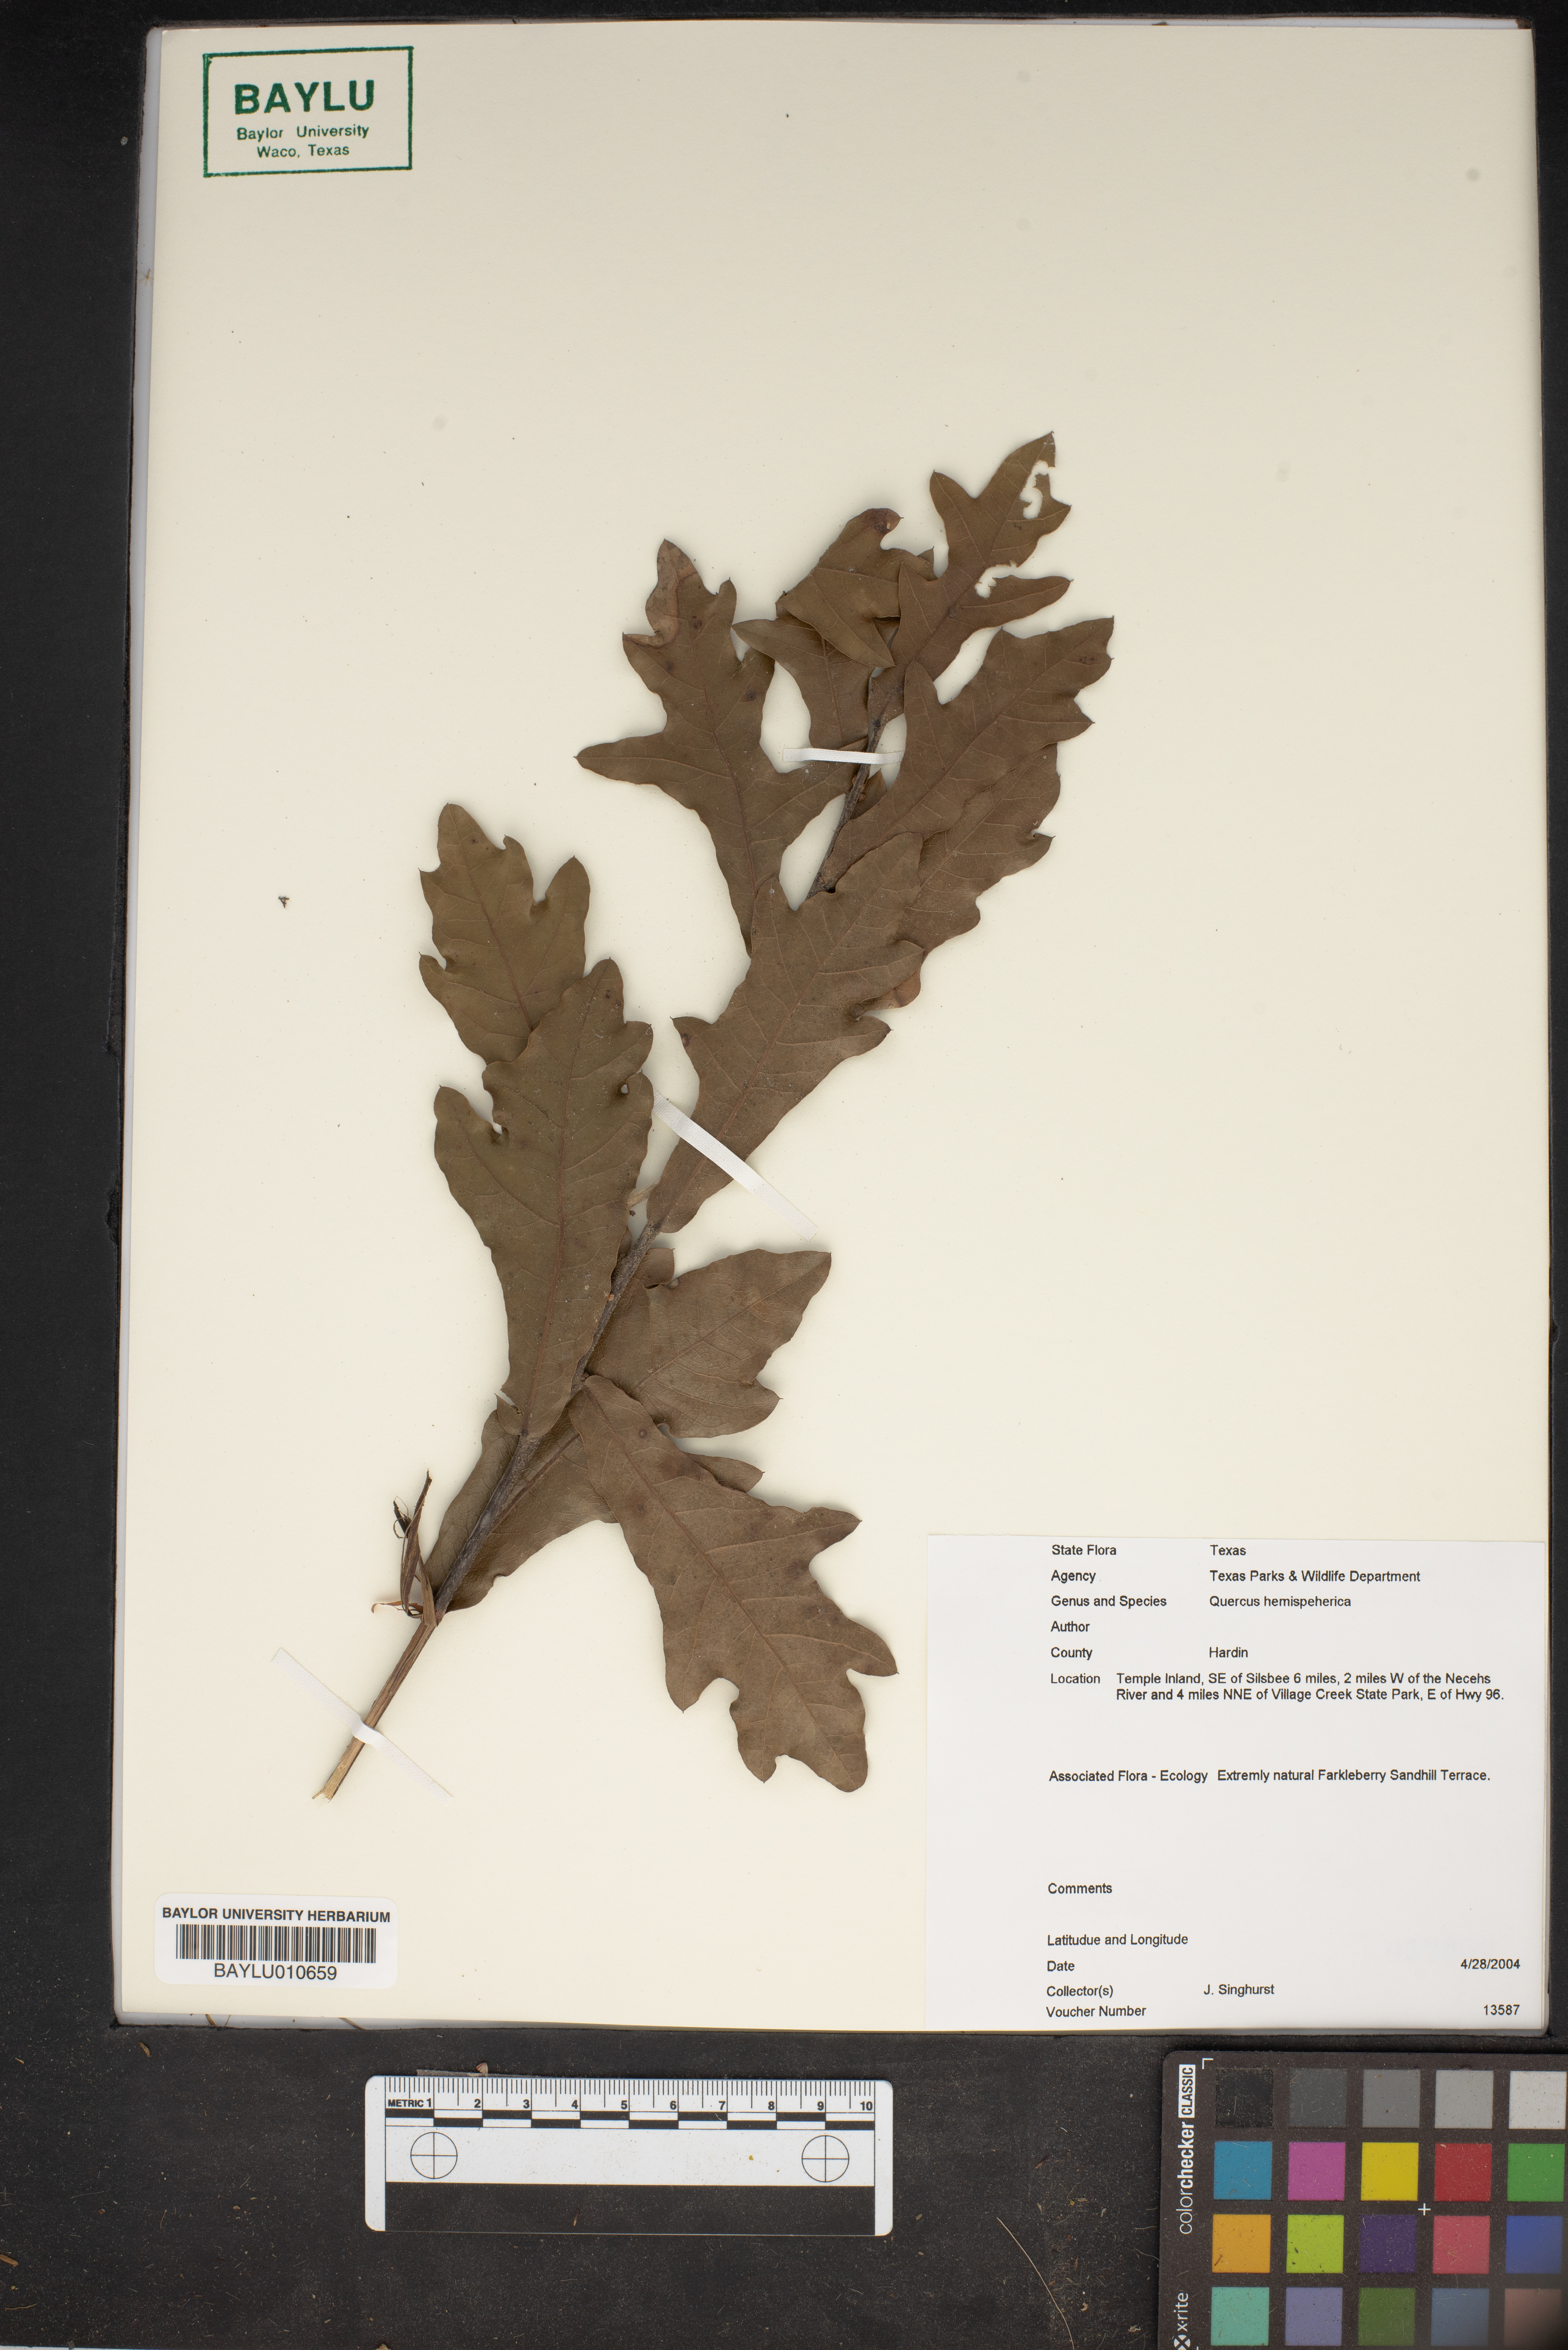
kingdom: Plantae
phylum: Tracheophyta
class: Magnoliopsida
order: Fagales
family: Fagaceae
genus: Quercus
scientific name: Quercus hemisphaerica
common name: Darlington oak
